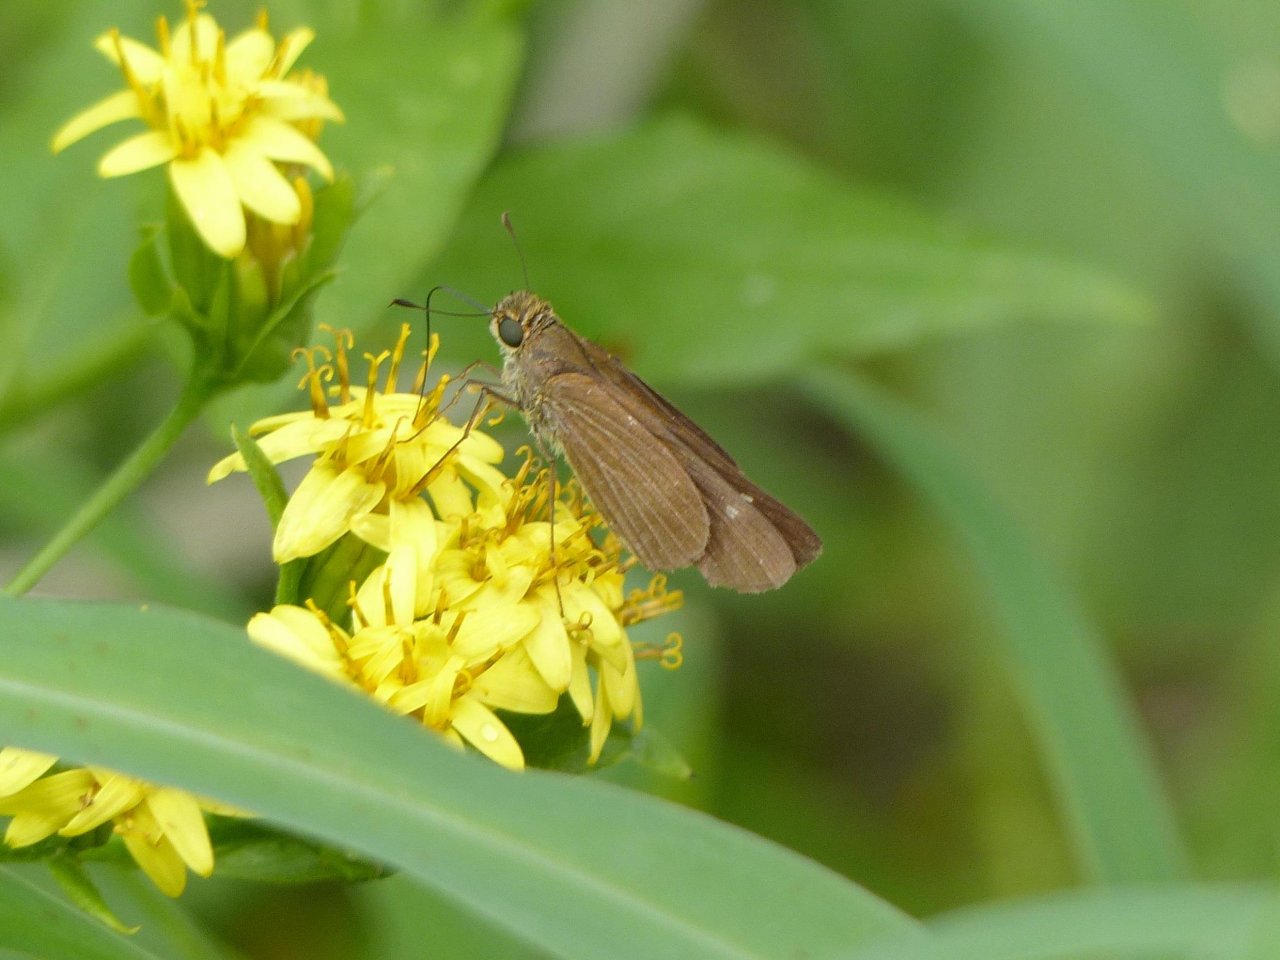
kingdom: Animalia
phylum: Arthropoda
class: Insecta
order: Lepidoptera
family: Hesperiidae
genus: Panoquina
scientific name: Panoquina ocola
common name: Ocola Skipper
